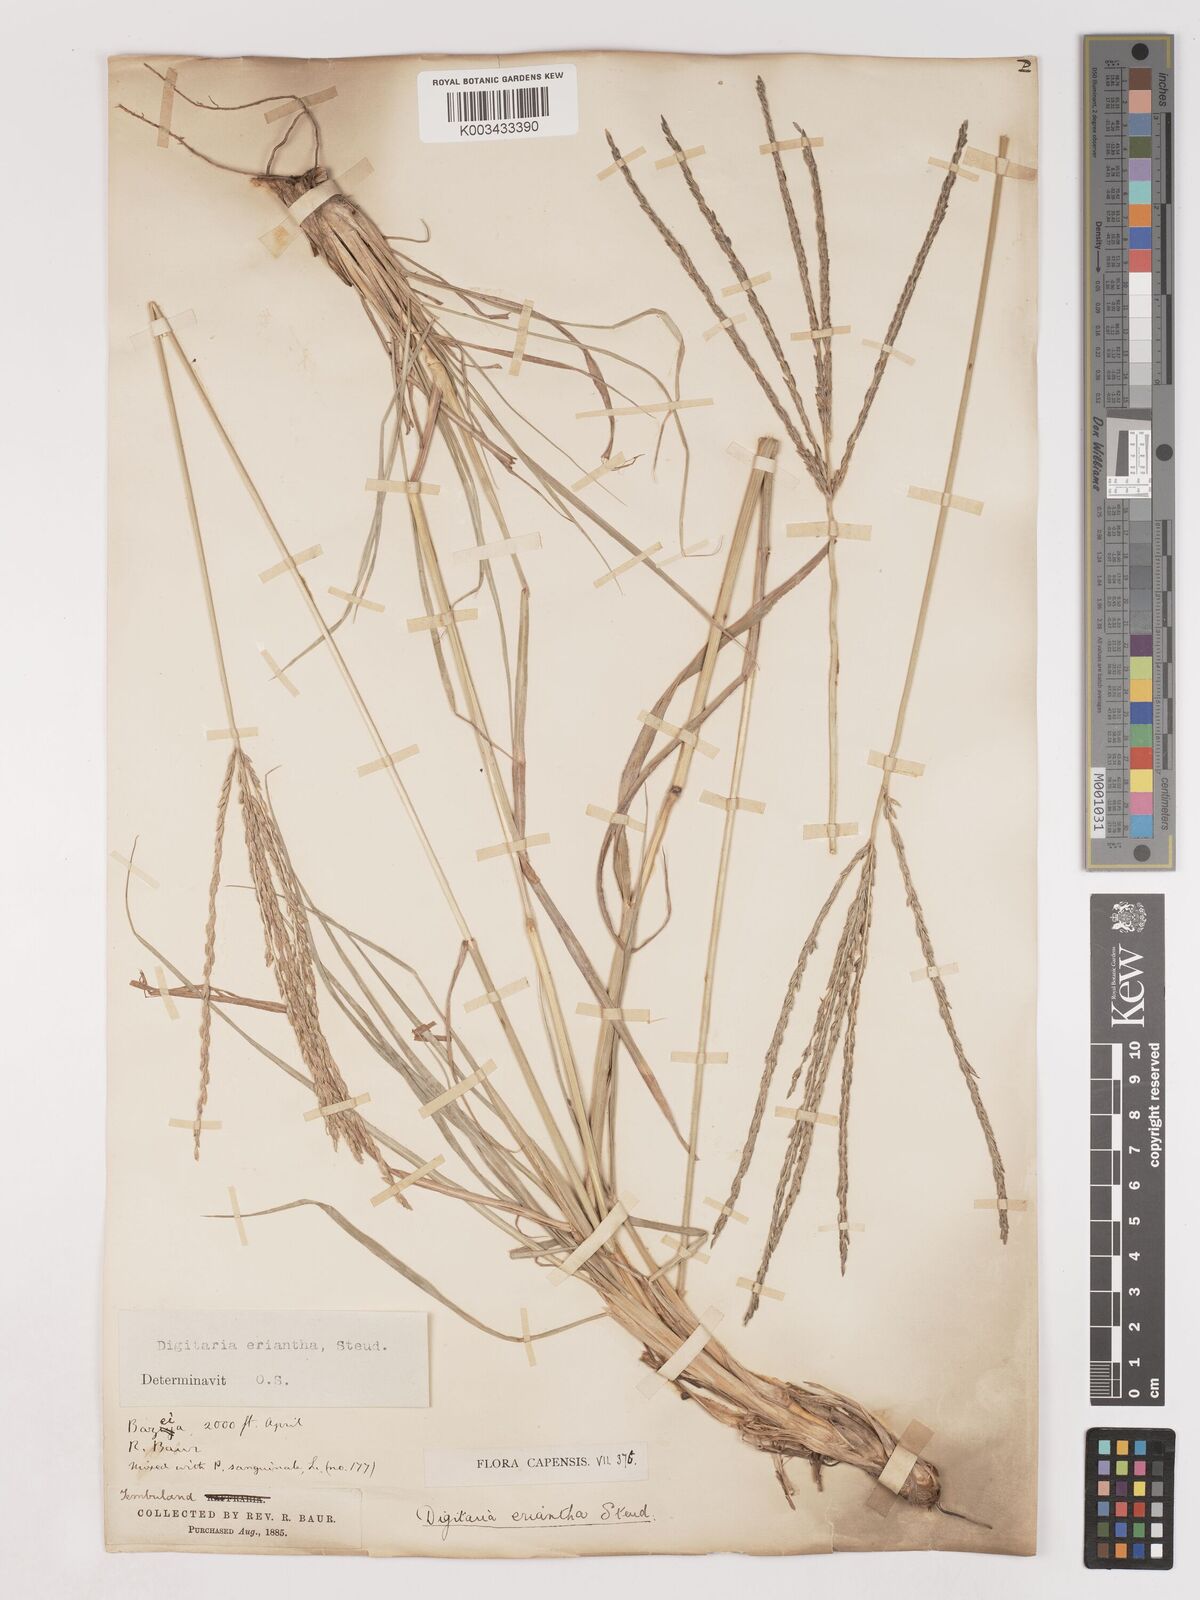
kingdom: Plantae
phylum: Tracheophyta
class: Liliopsida
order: Poales
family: Poaceae
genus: Digitaria
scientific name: Digitaria eriantha
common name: Digitgrass
